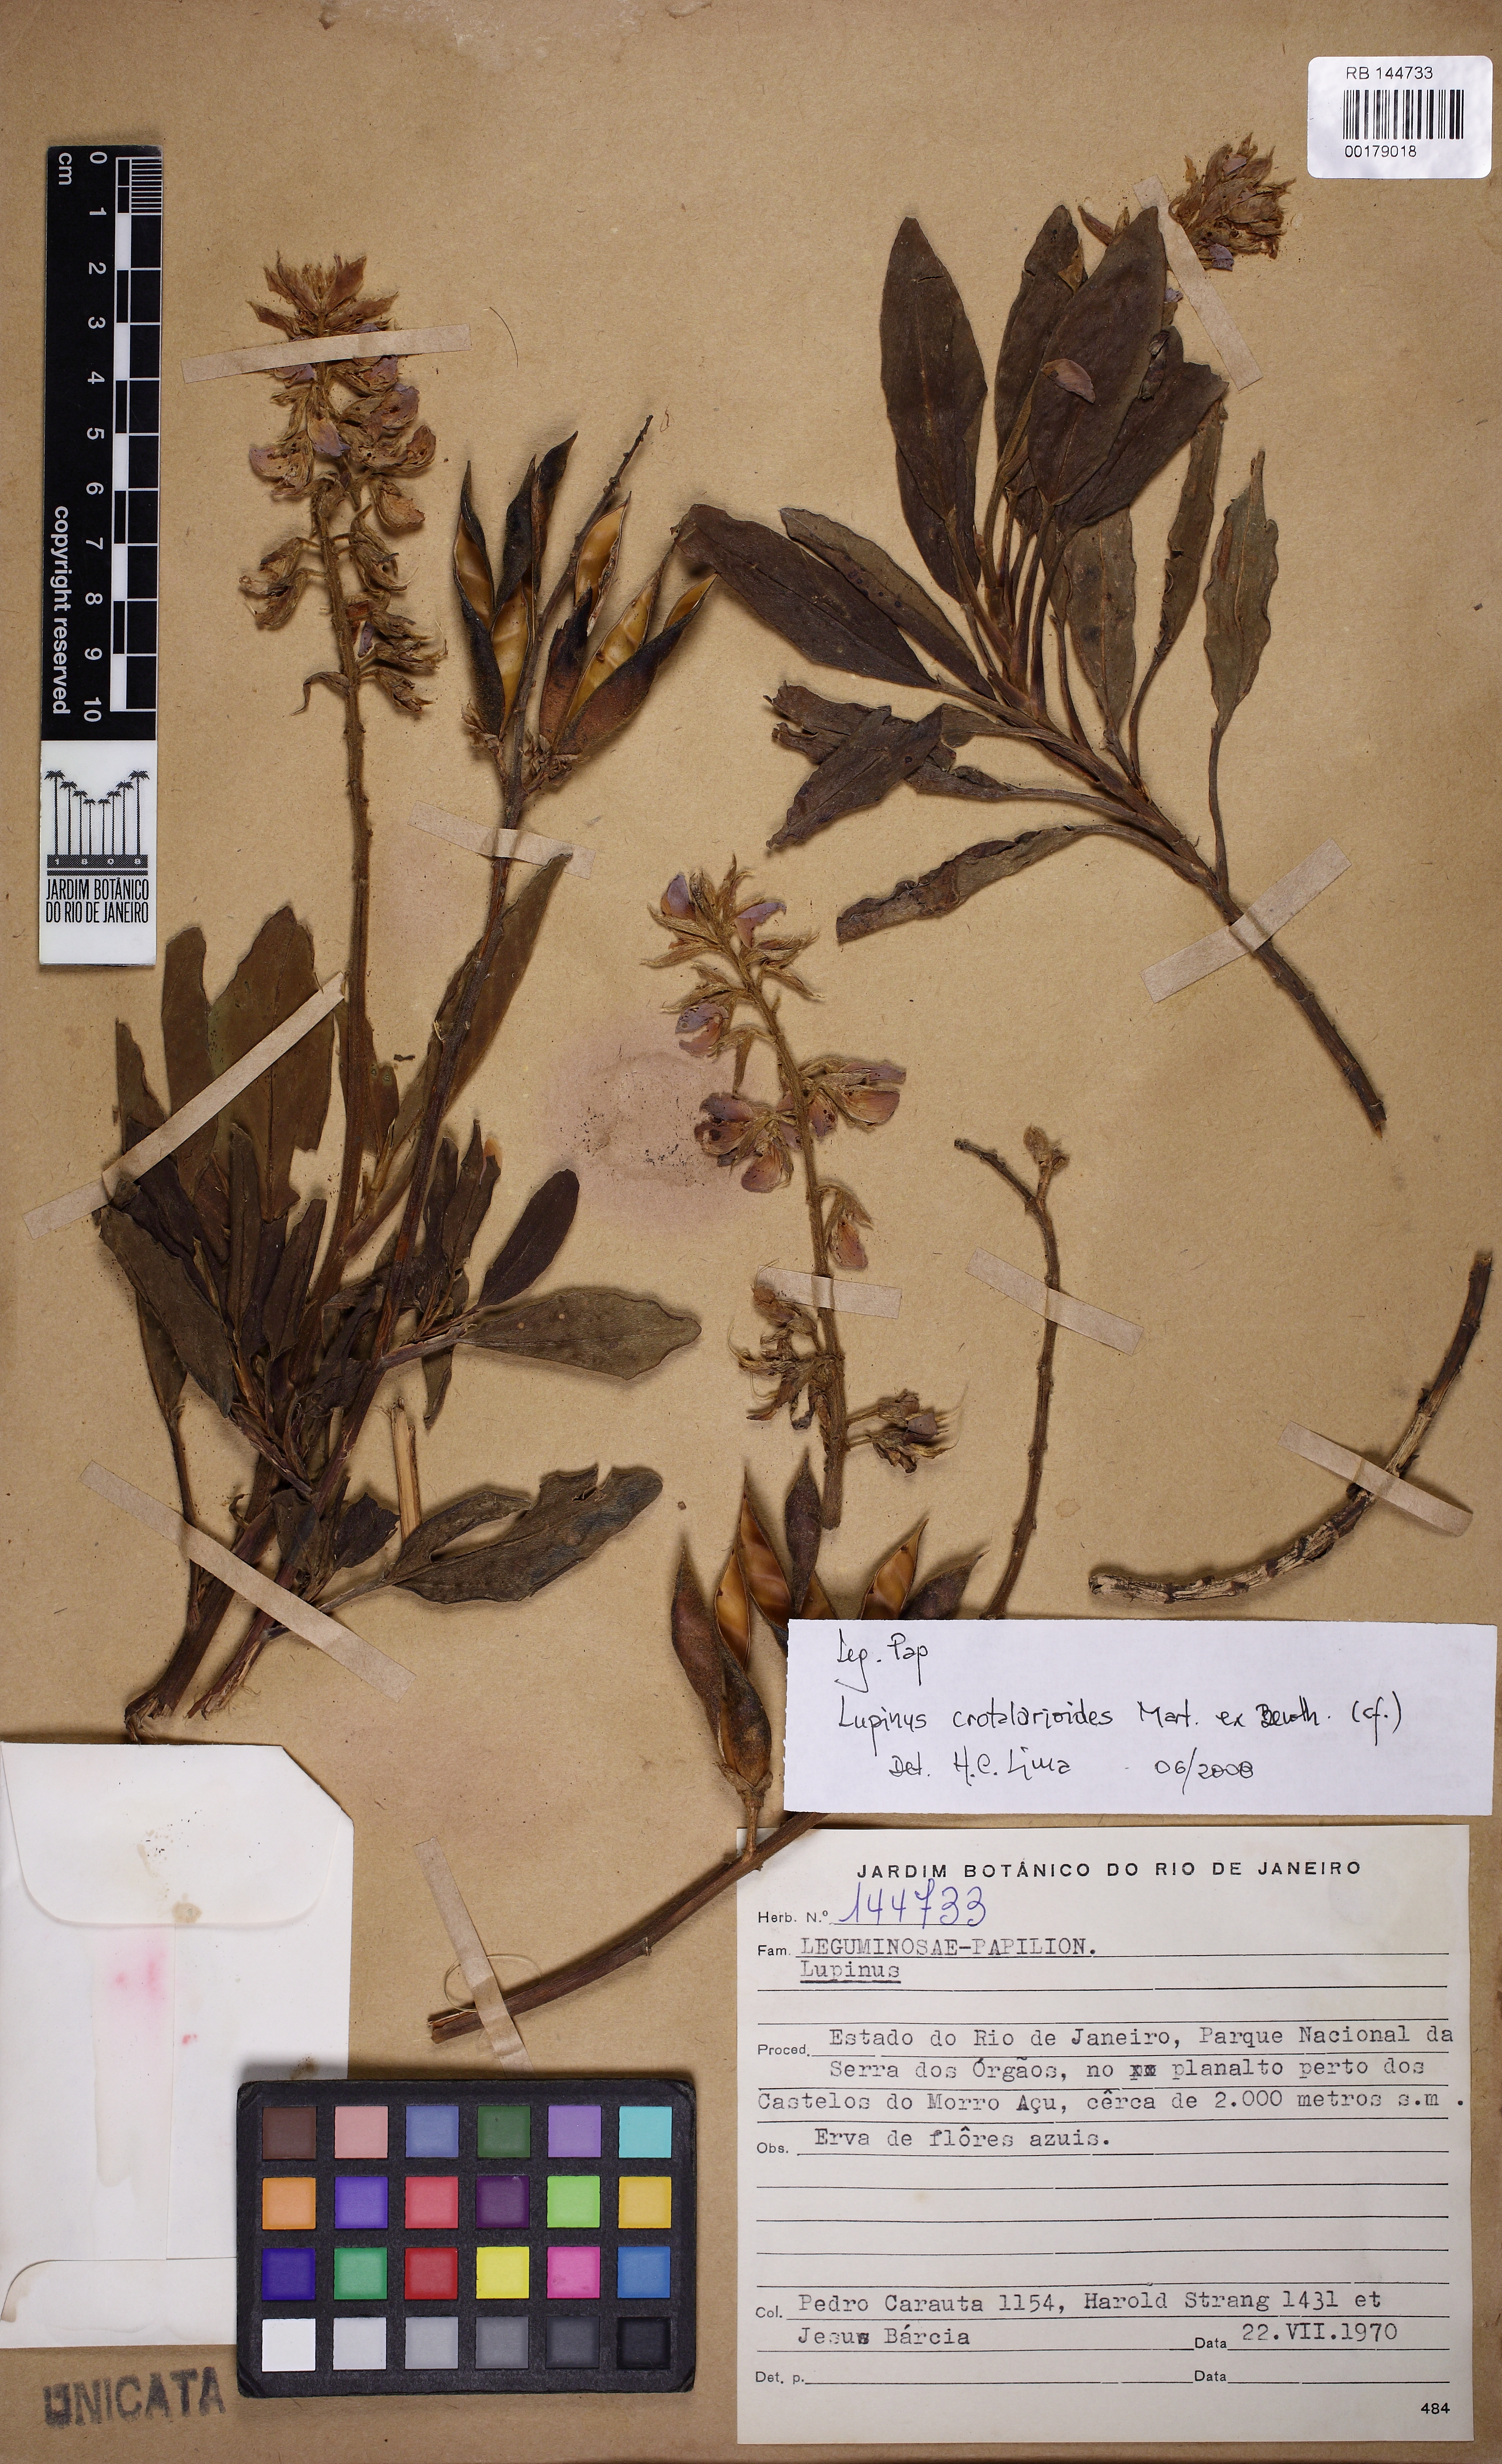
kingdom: Plantae
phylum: Tracheophyta
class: Magnoliopsida
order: Fabales
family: Fabaceae
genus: Lupinus
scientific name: Lupinus crotalarioides
